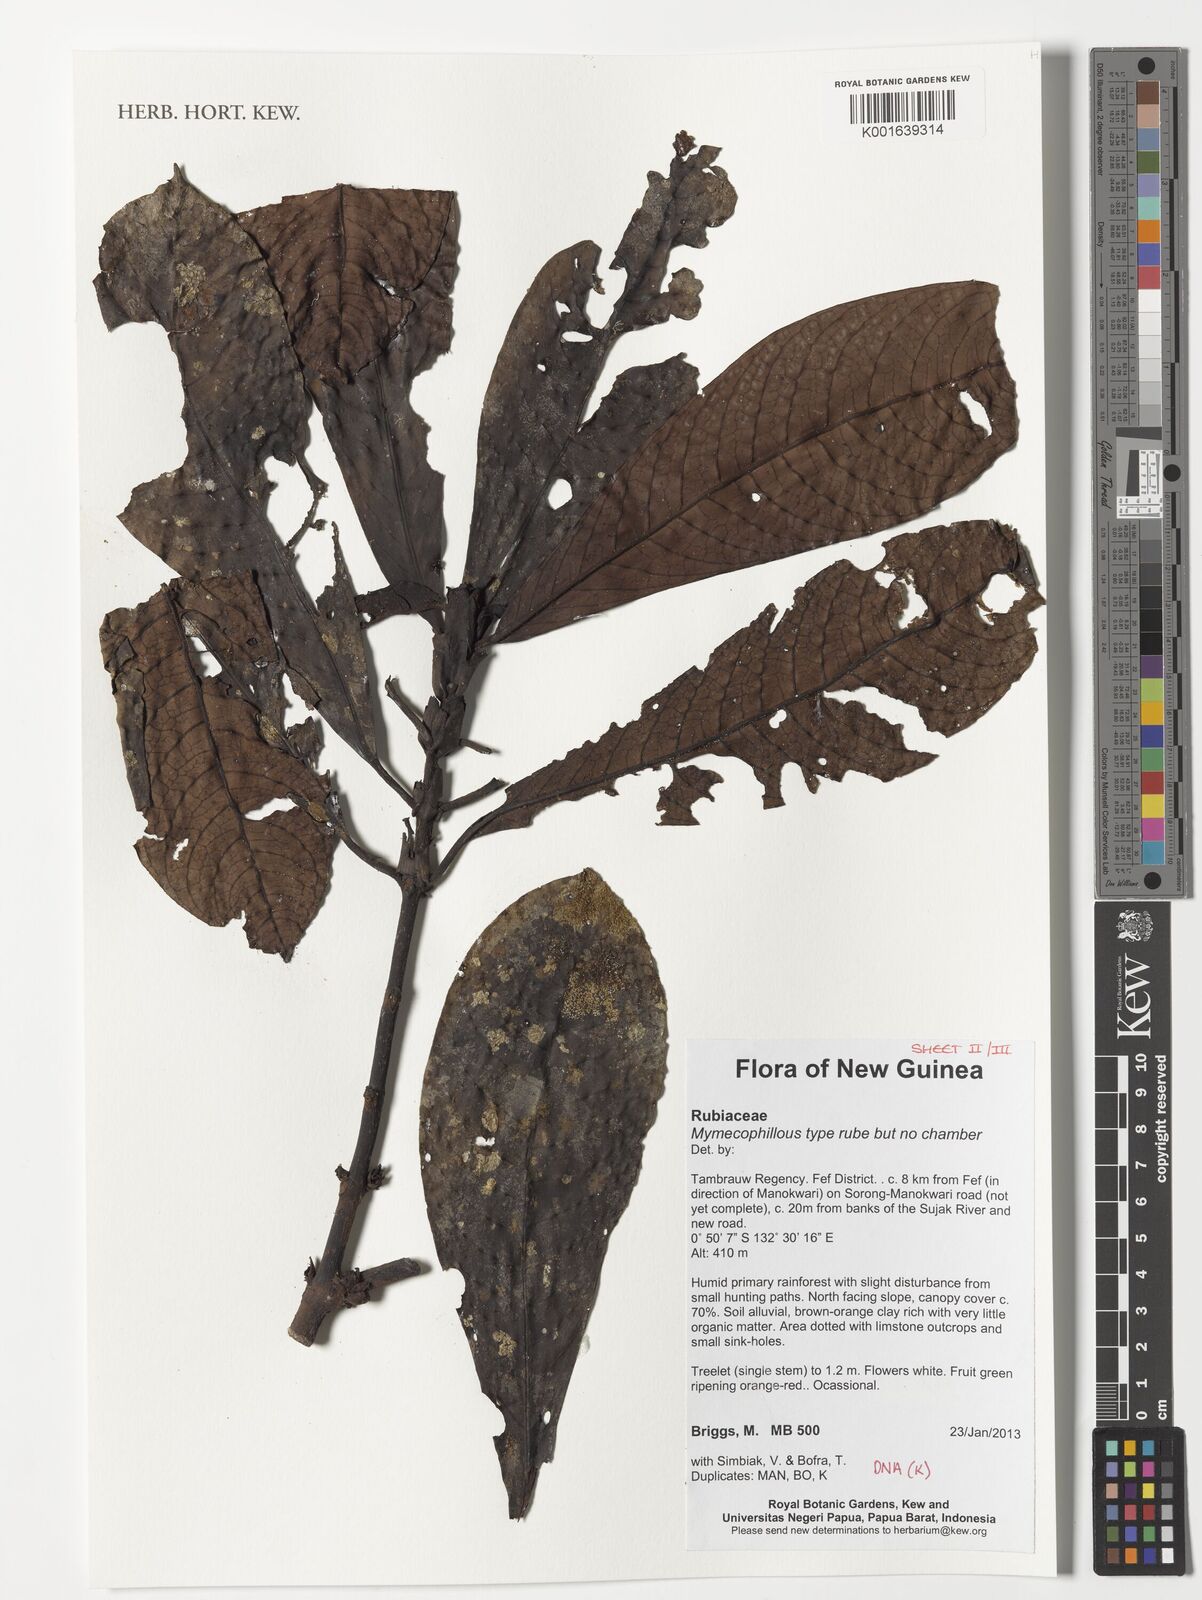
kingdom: Plantae
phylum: Tracheophyta
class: Magnoliopsida
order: Gentianales
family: Rubiaceae
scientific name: Rubiaceae
